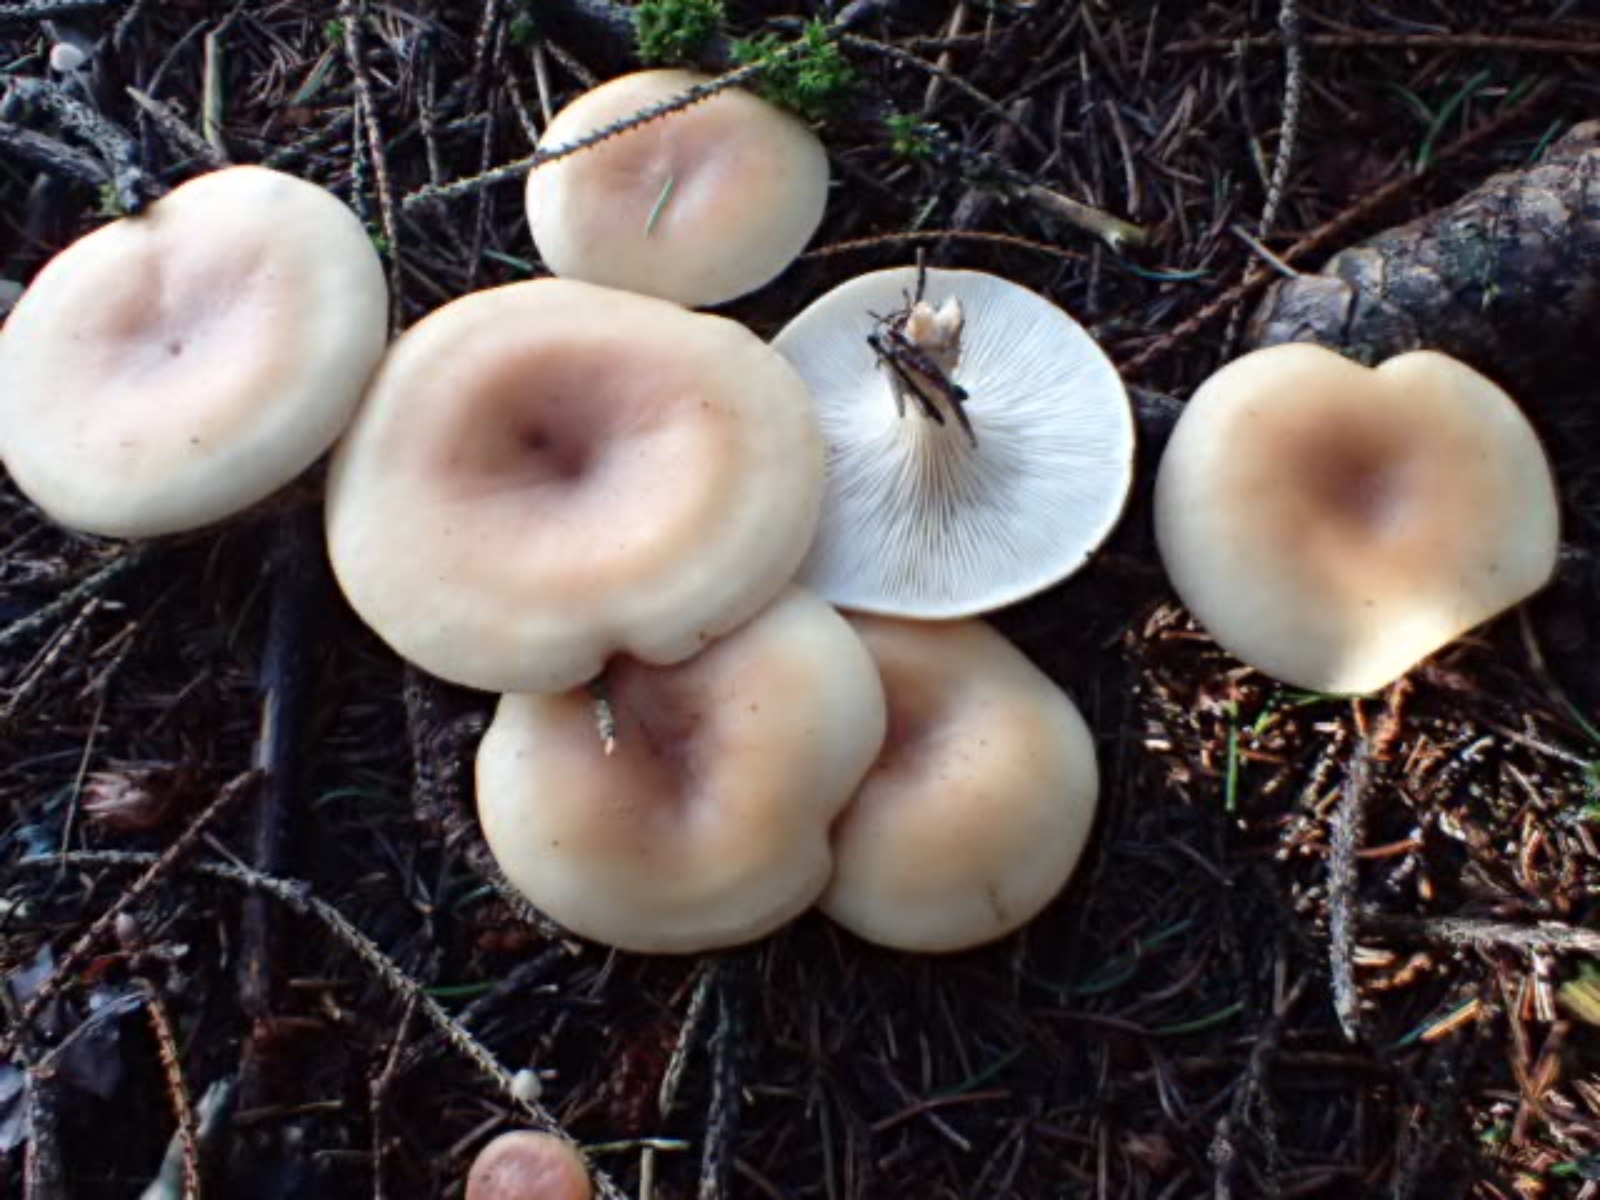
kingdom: Fungi
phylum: Basidiomycota
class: Agaricomycetes
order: Agaricales
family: Tricholomataceae
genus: Paralepista
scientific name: Paralepista flaccida
